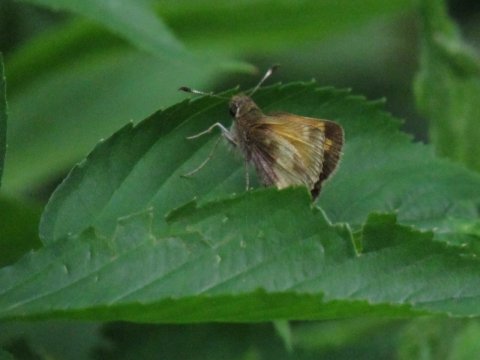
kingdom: Animalia
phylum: Arthropoda
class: Insecta
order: Lepidoptera
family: Hesperiidae
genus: Lon
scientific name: Lon hobomok
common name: Hobomok Skipper
